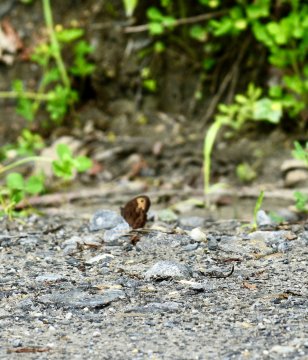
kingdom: Animalia
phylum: Arthropoda
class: Insecta
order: Lepidoptera
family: Nymphalidae
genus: Cercyonis
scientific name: Cercyonis pegala
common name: Common Wood-Nymph
